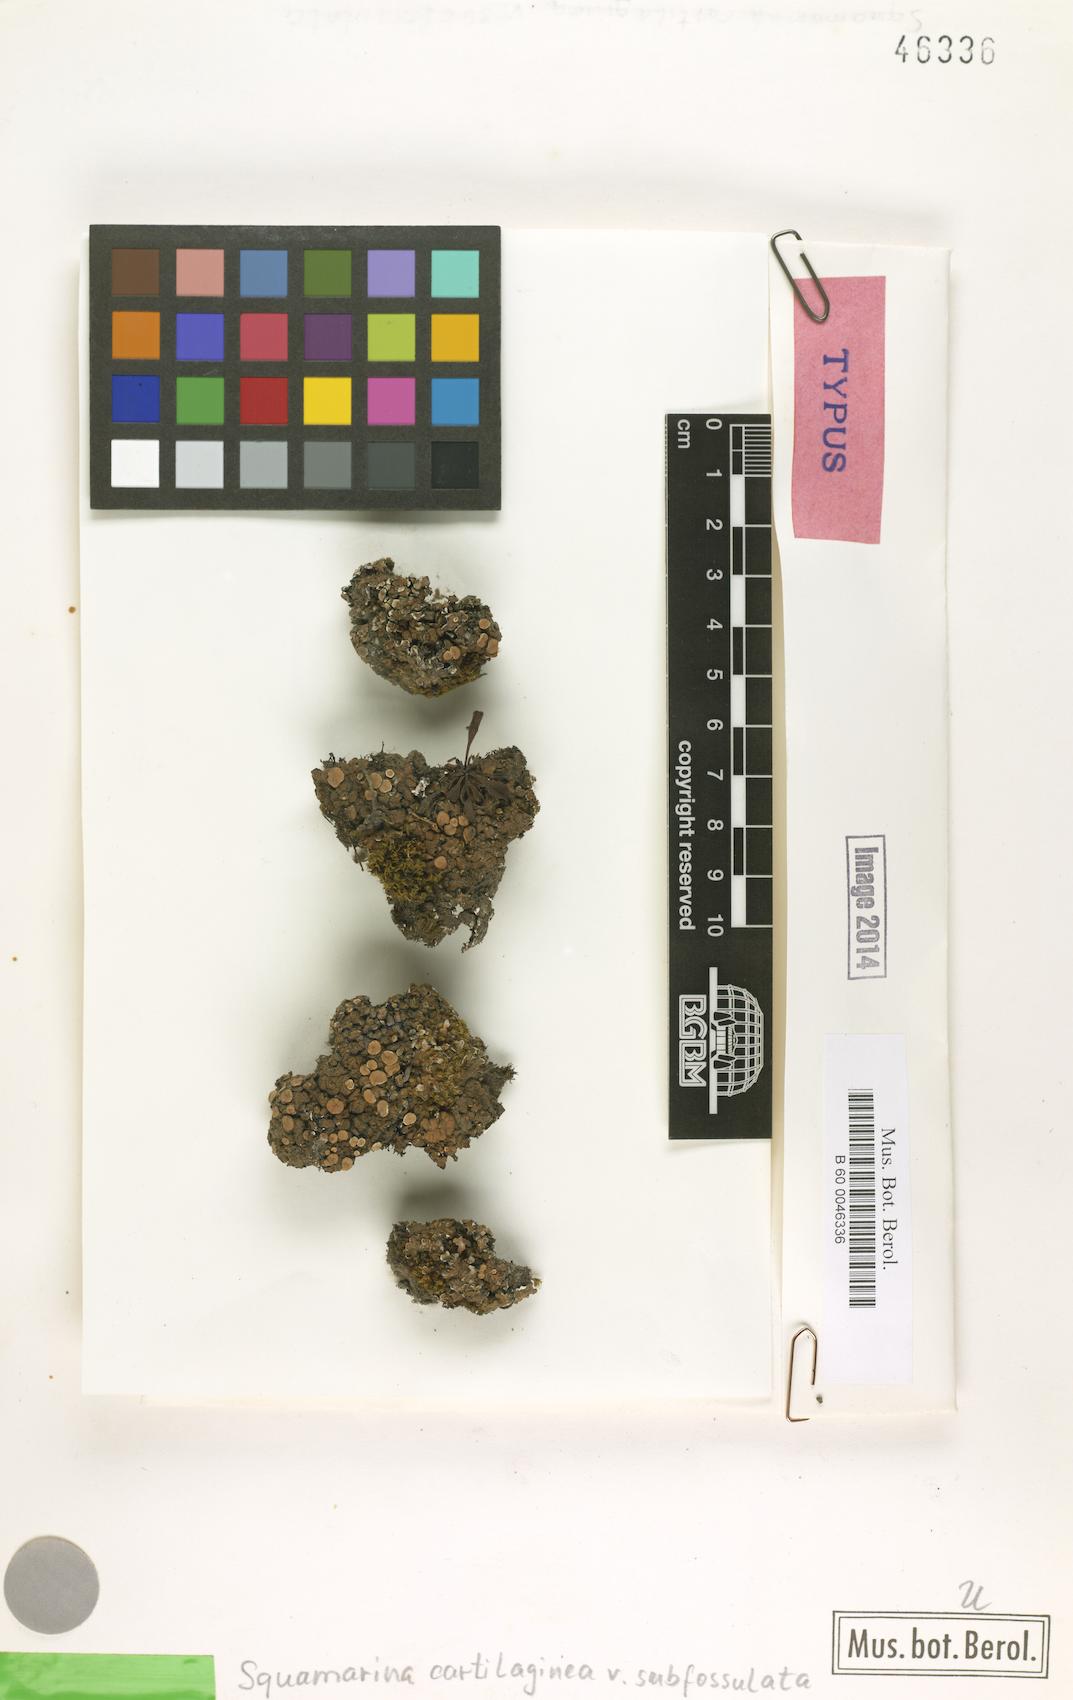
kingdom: Fungi
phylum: Ascomycota
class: Lecanoromycetes
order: Lecanorales
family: Stereocaulaceae
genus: Squamarina
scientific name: Squamarina cartilaginea
